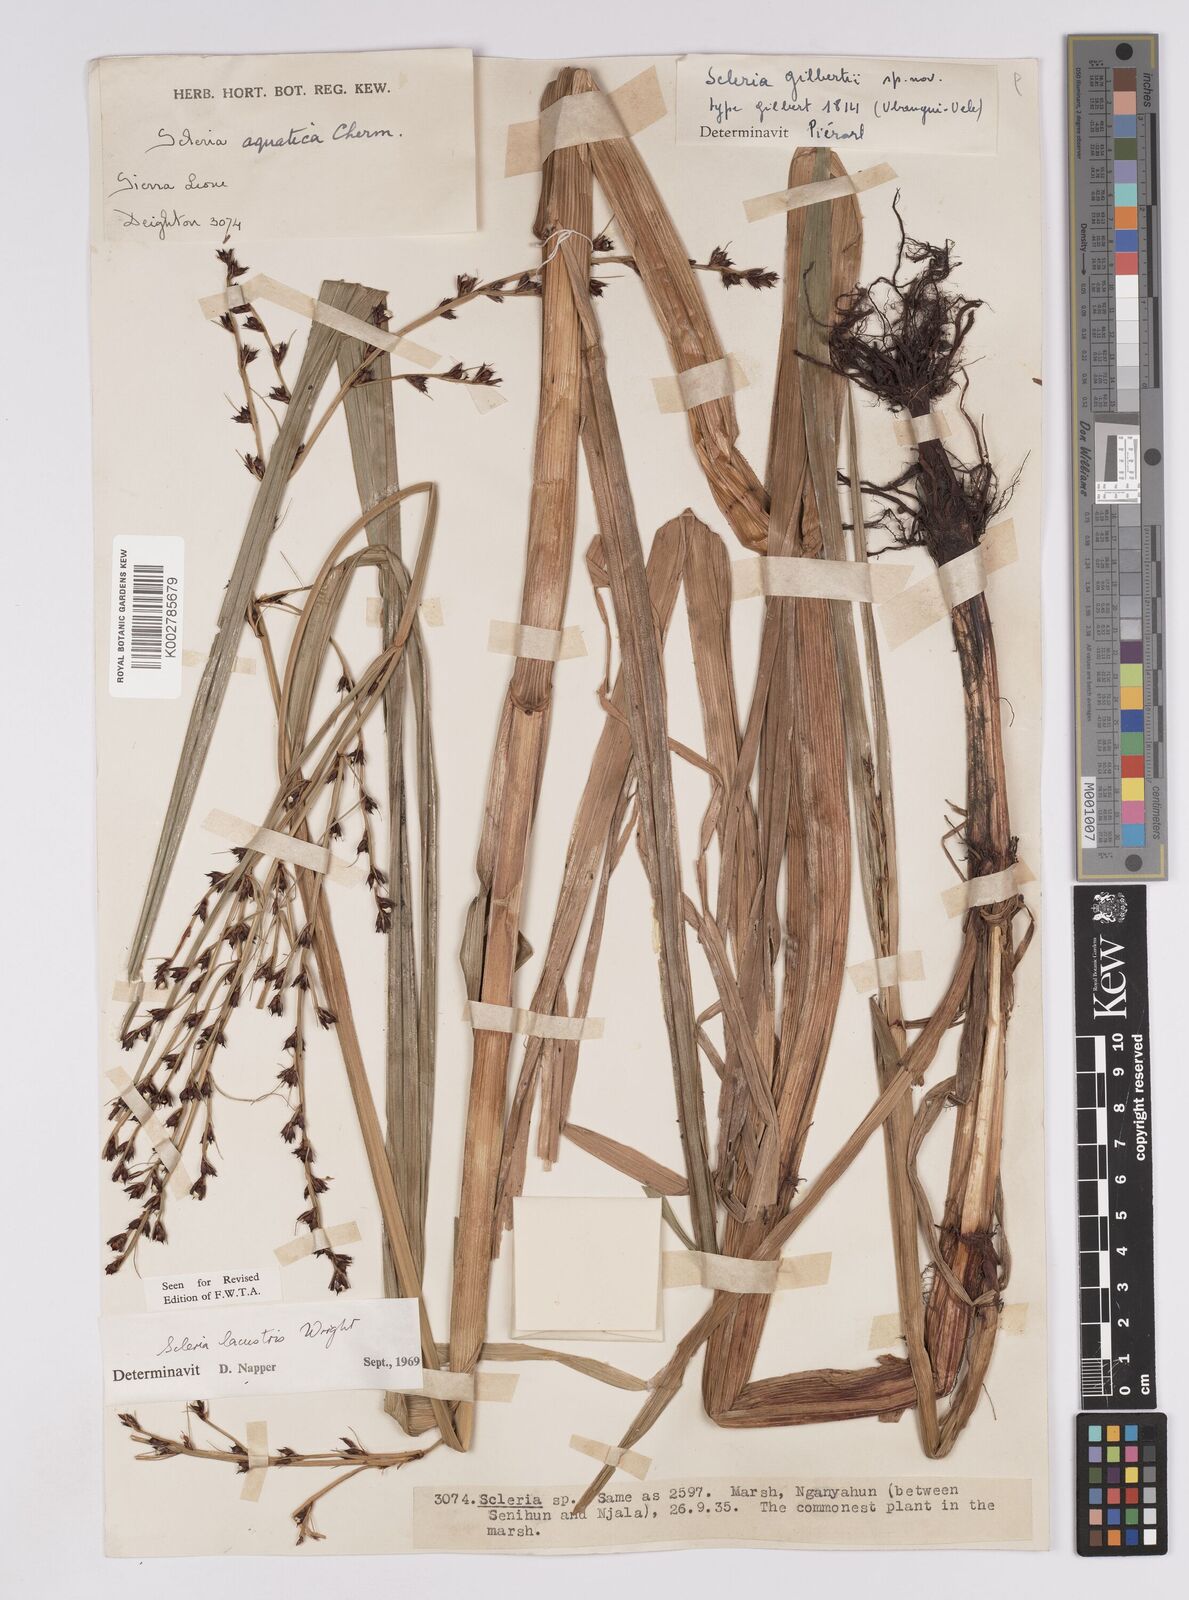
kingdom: Plantae
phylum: Tracheophyta
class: Liliopsida
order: Poales
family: Cyperaceae
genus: Scleria
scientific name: Scleria lacustris
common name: Lakeshore nutrush
